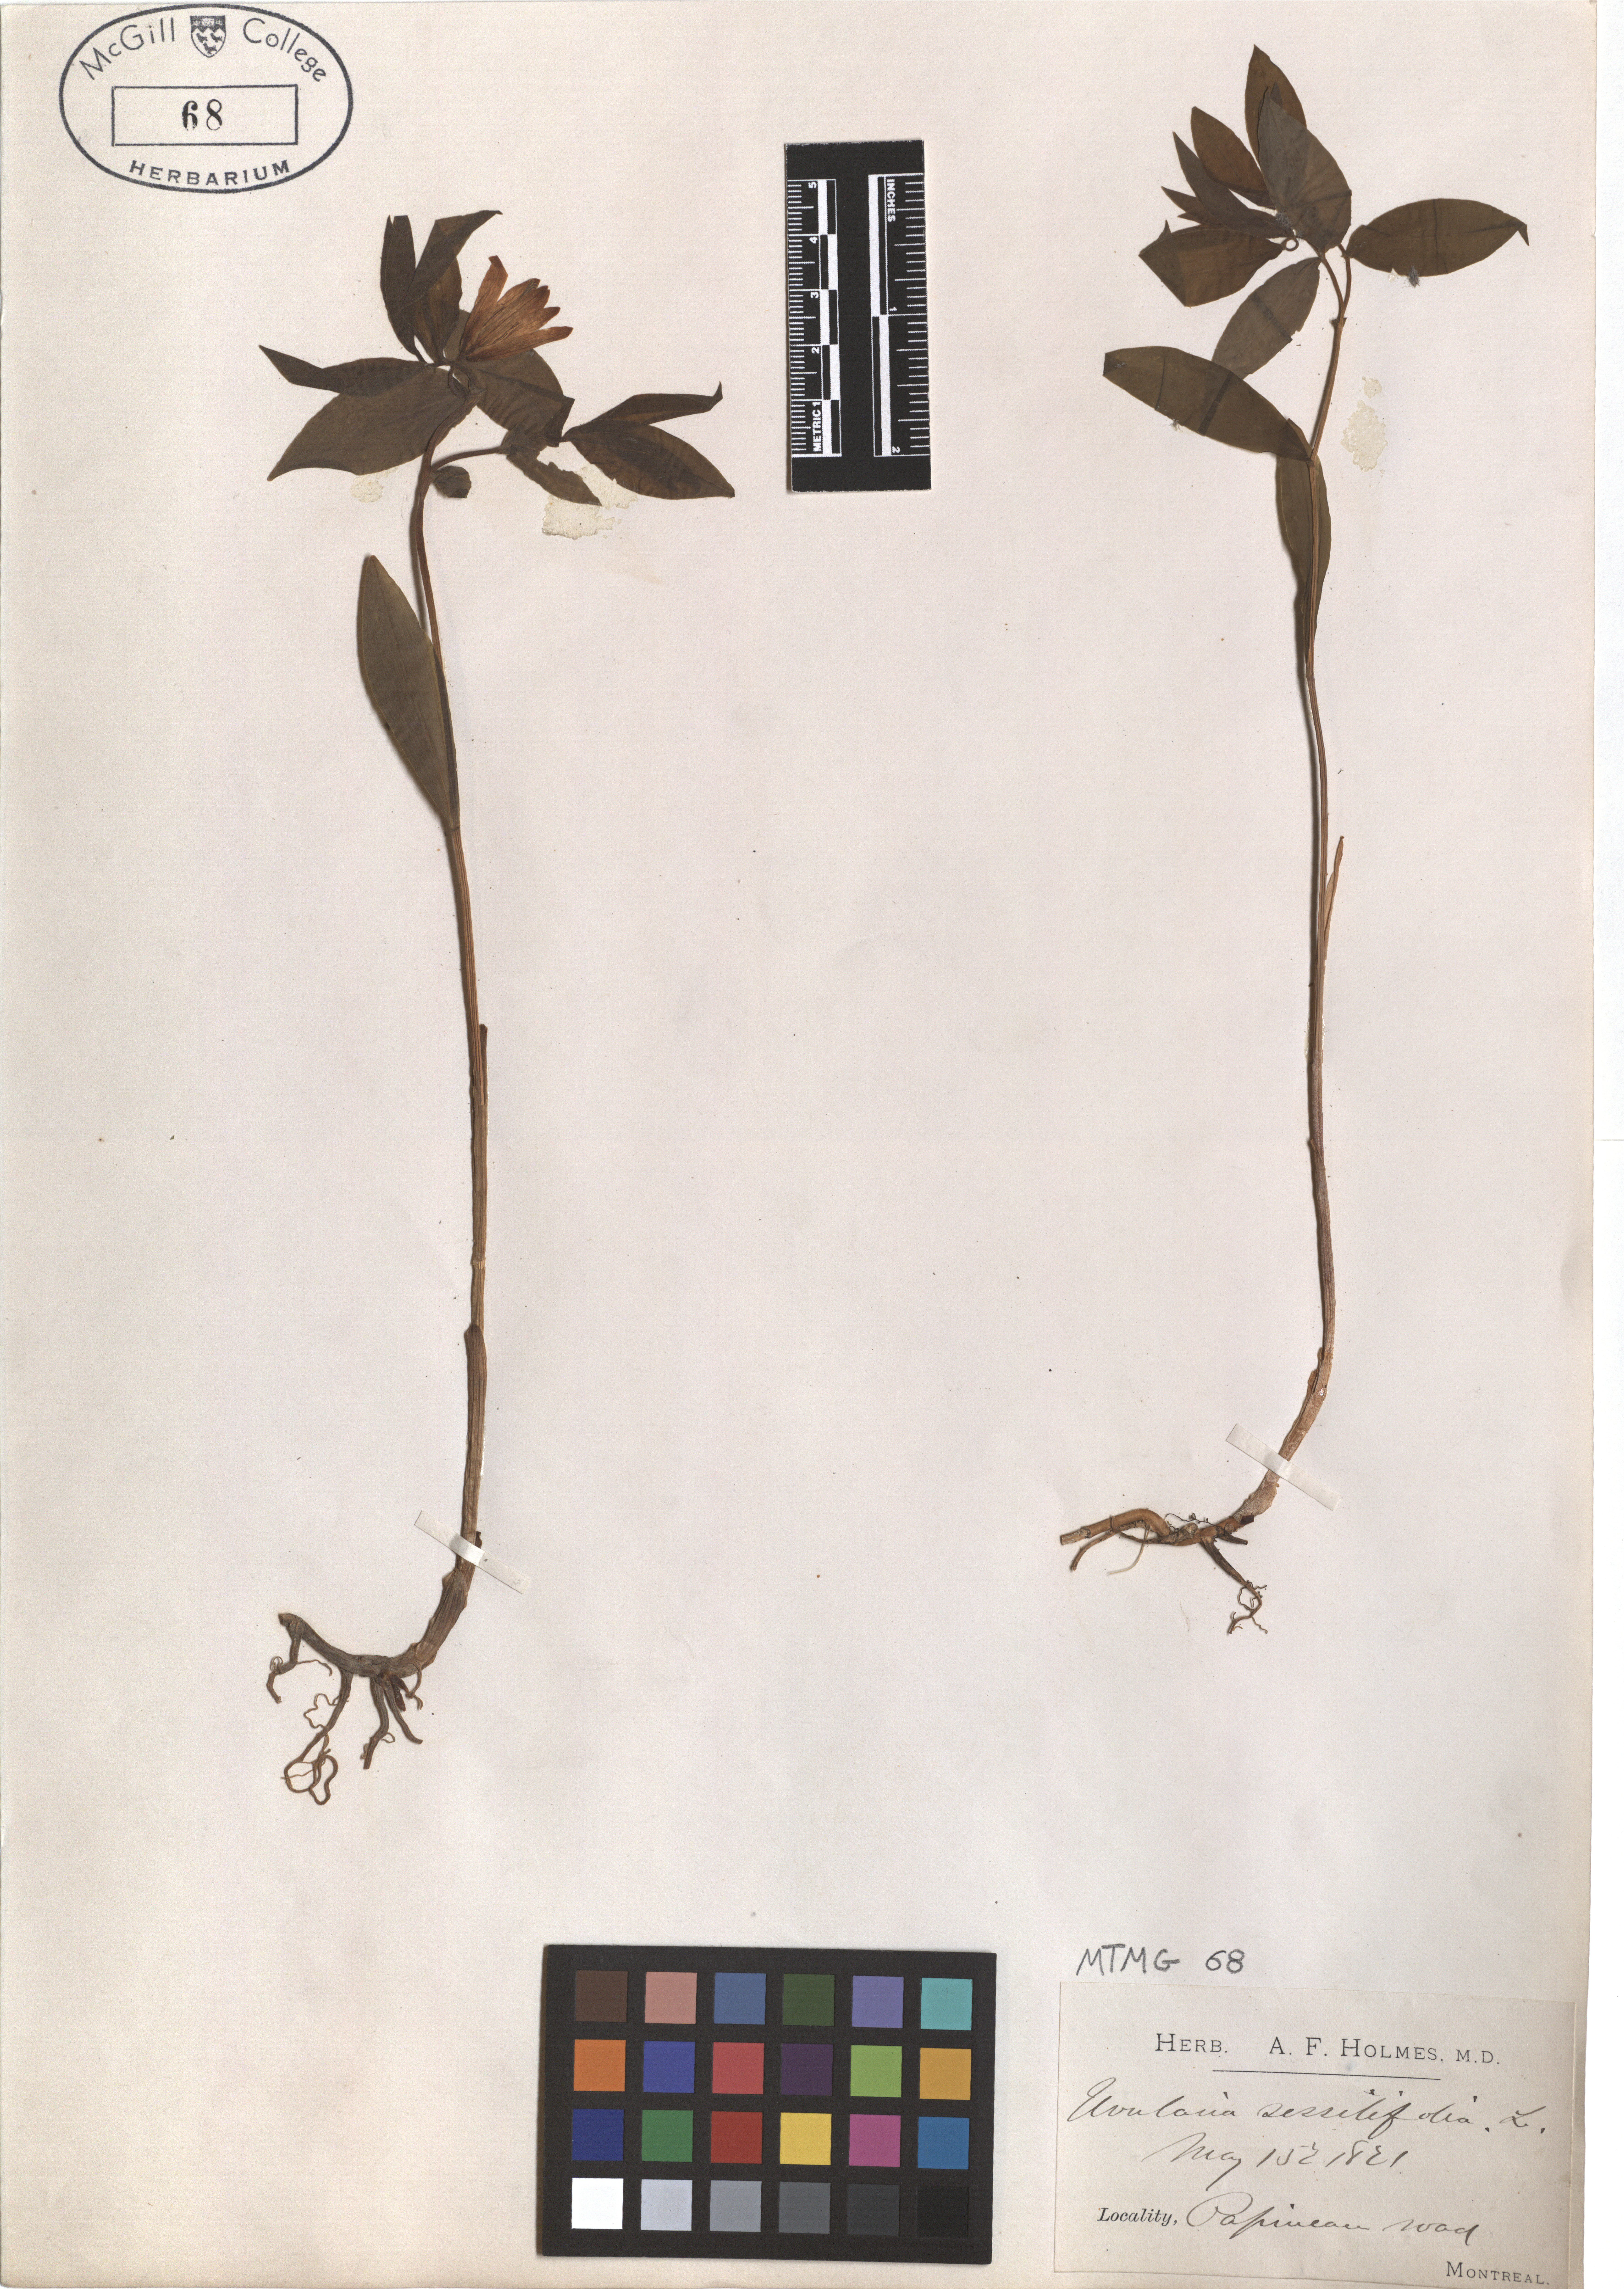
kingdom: Plantae
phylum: Tracheophyta
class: Liliopsida
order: Liliales
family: Colchicaceae
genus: Uvularia
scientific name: Uvularia sessilifolia
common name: Straw-lily
